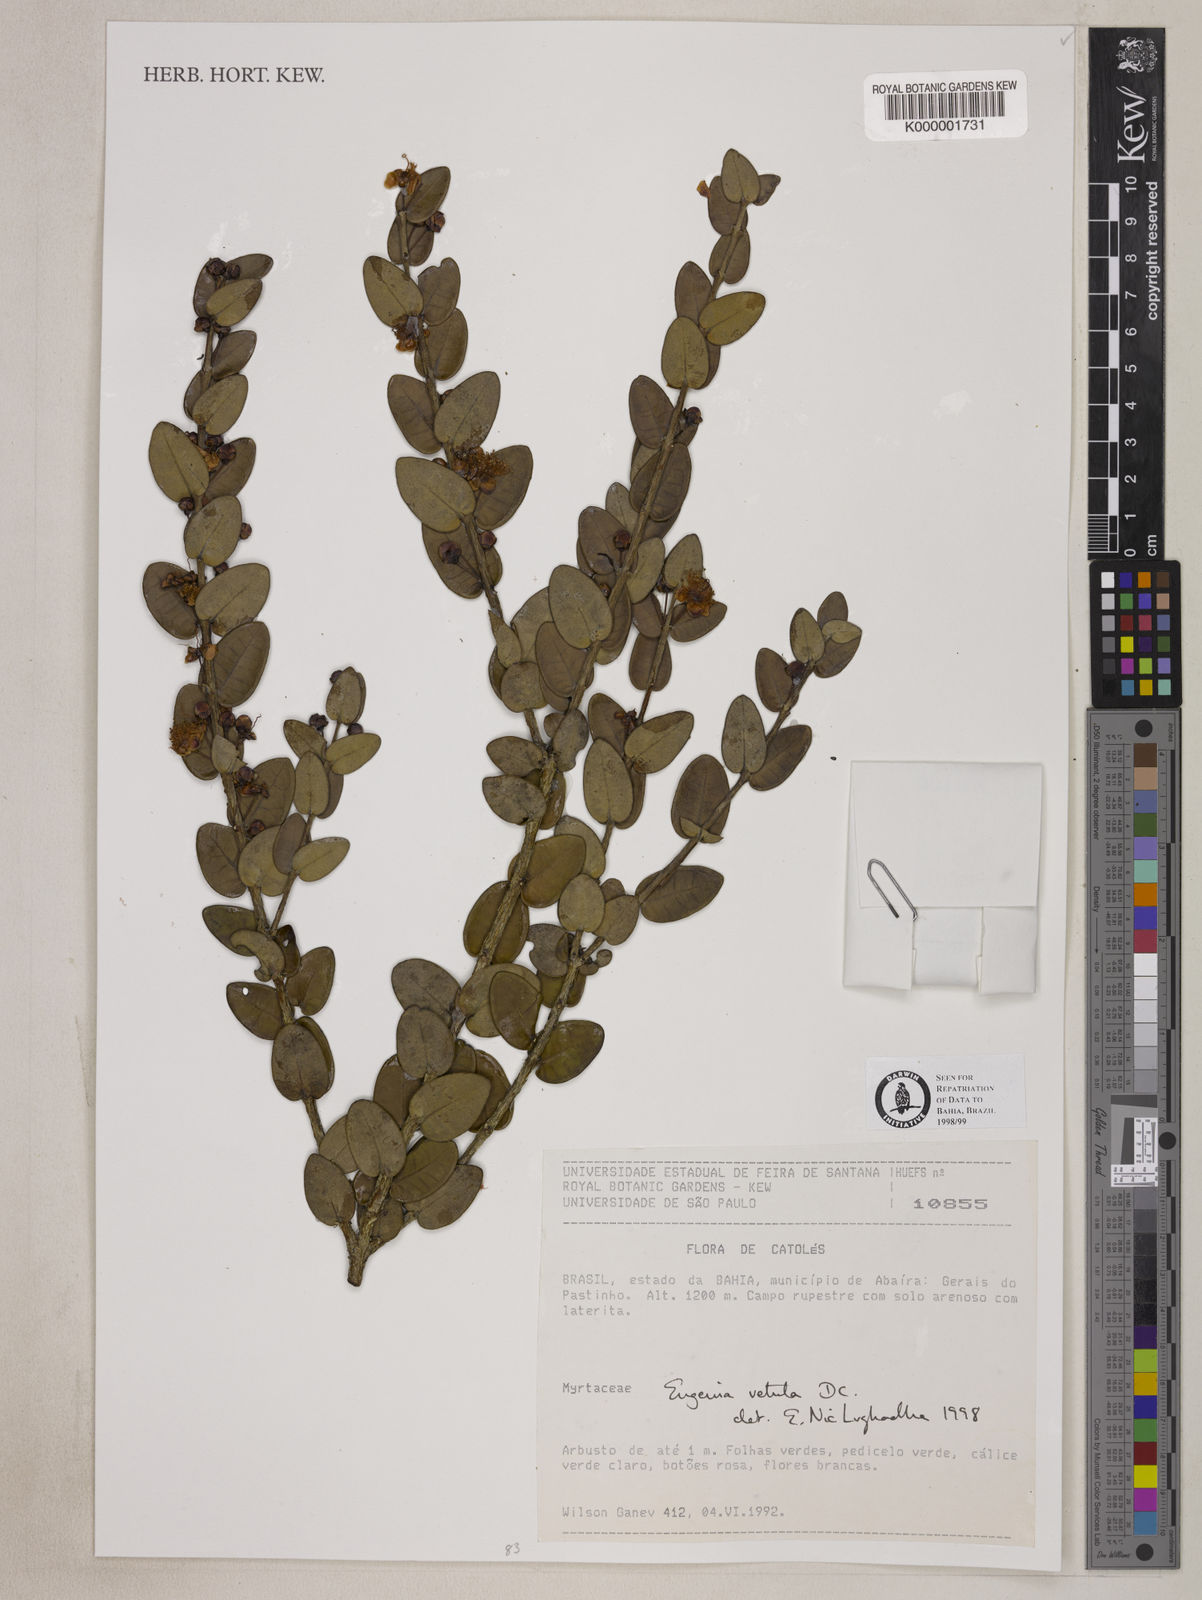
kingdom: Plantae
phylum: Tracheophyta
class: Magnoliopsida
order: Myrtales
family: Myrtaceae
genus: Eugenia
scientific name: Eugenia vetula
